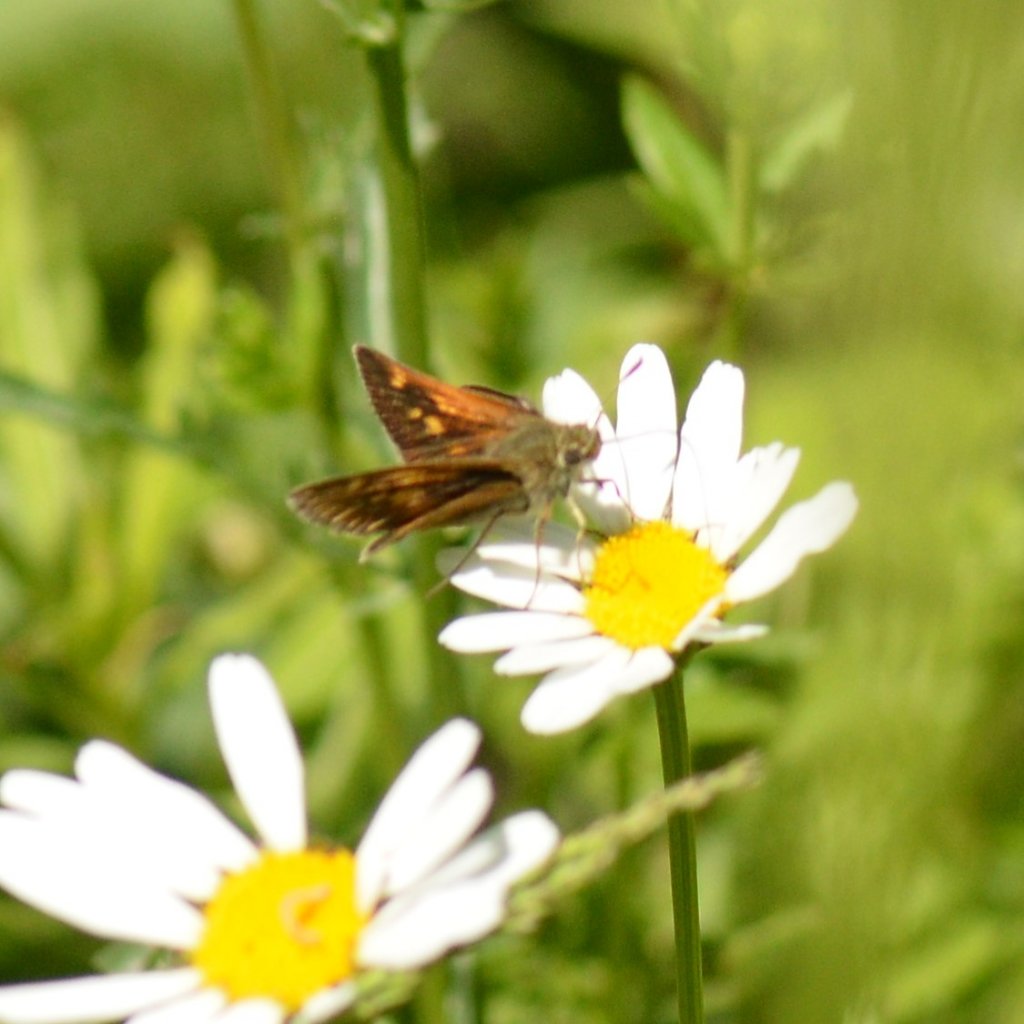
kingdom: Animalia
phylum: Arthropoda
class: Insecta
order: Lepidoptera
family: Hesperiidae
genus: Polites
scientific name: Polites themistocles
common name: Tawny-edged Skipper
